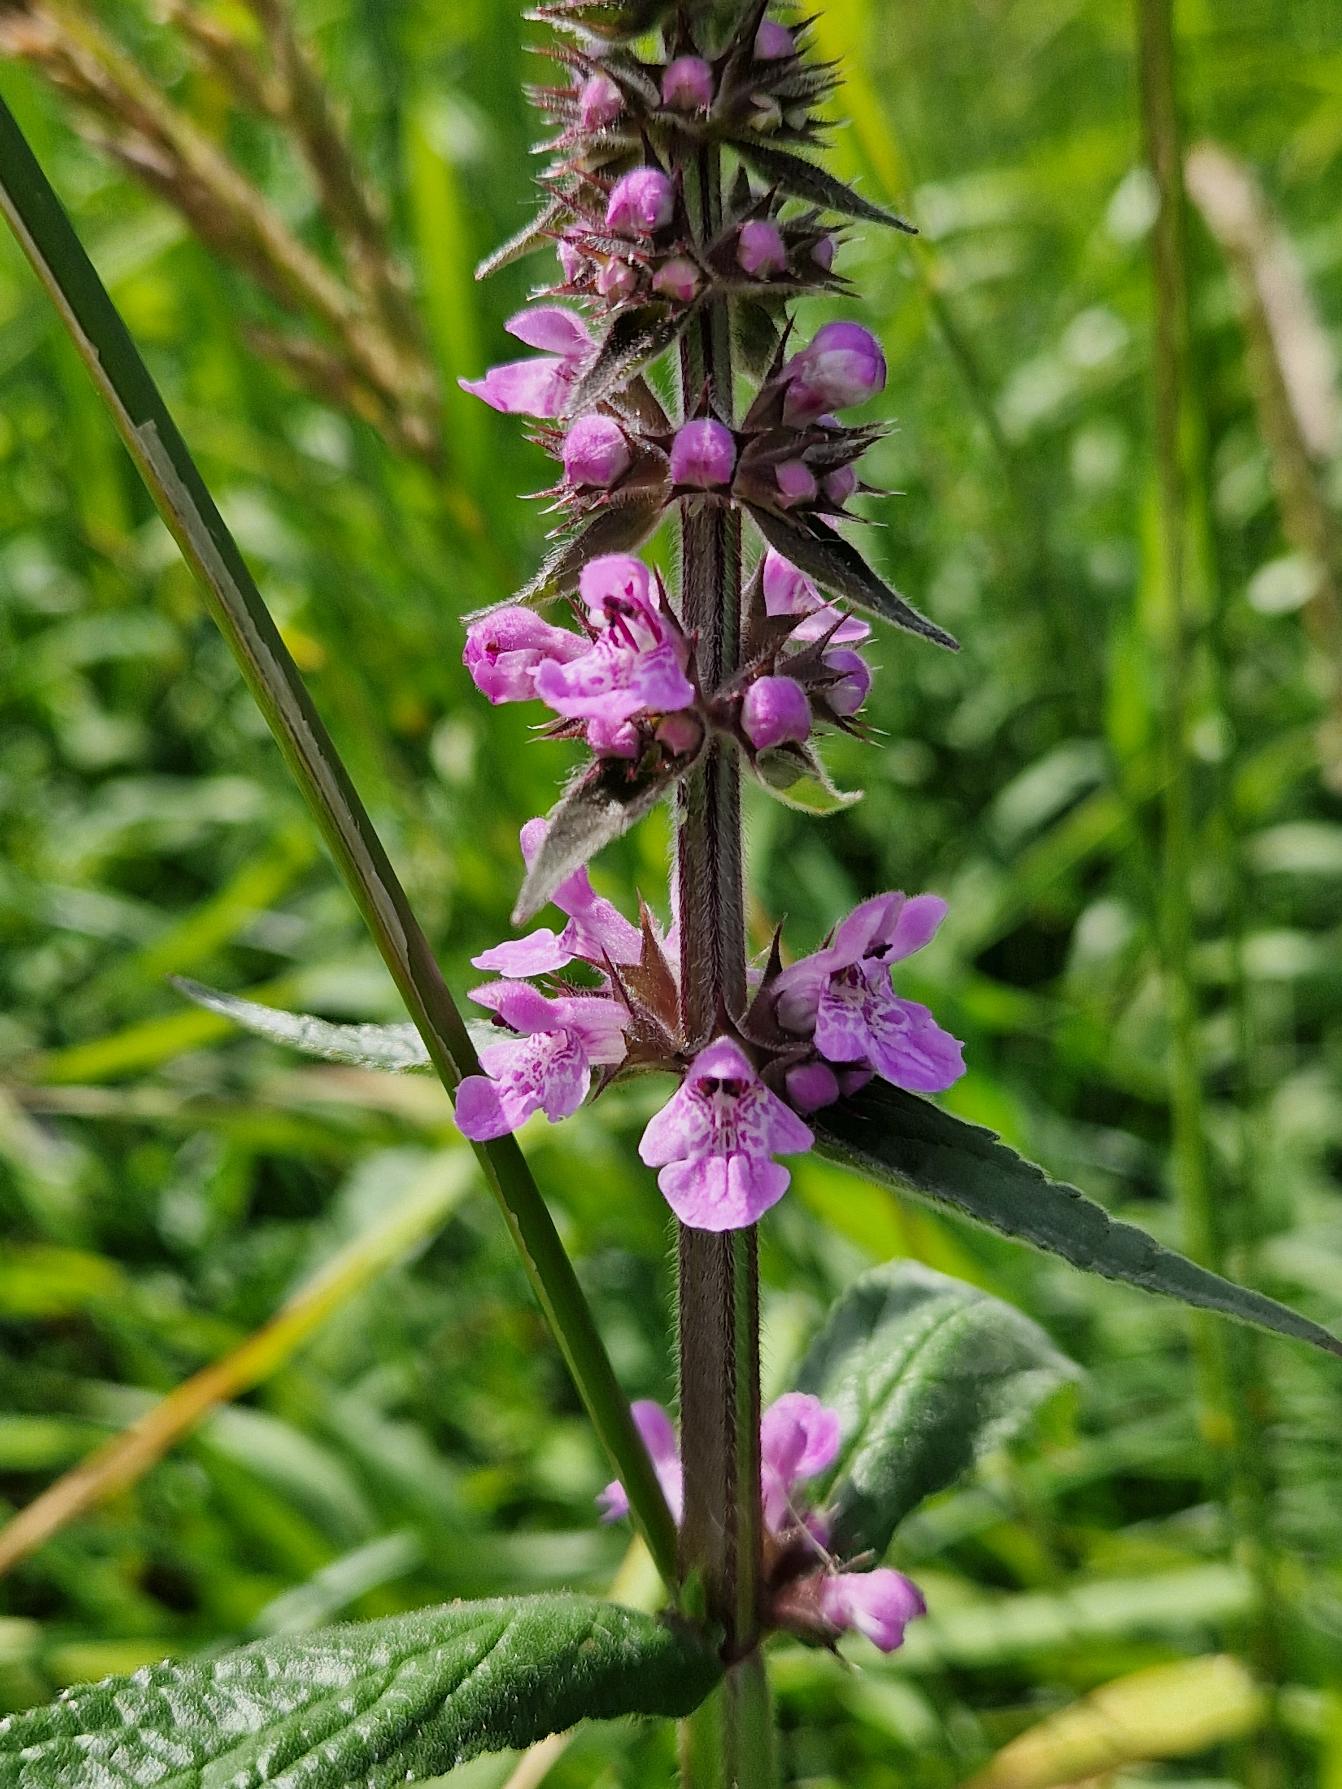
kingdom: Plantae
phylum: Tracheophyta
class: Magnoliopsida
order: Lamiales
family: Lamiaceae
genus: Stachys
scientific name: Stachys palustris
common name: Kær-galtetand
